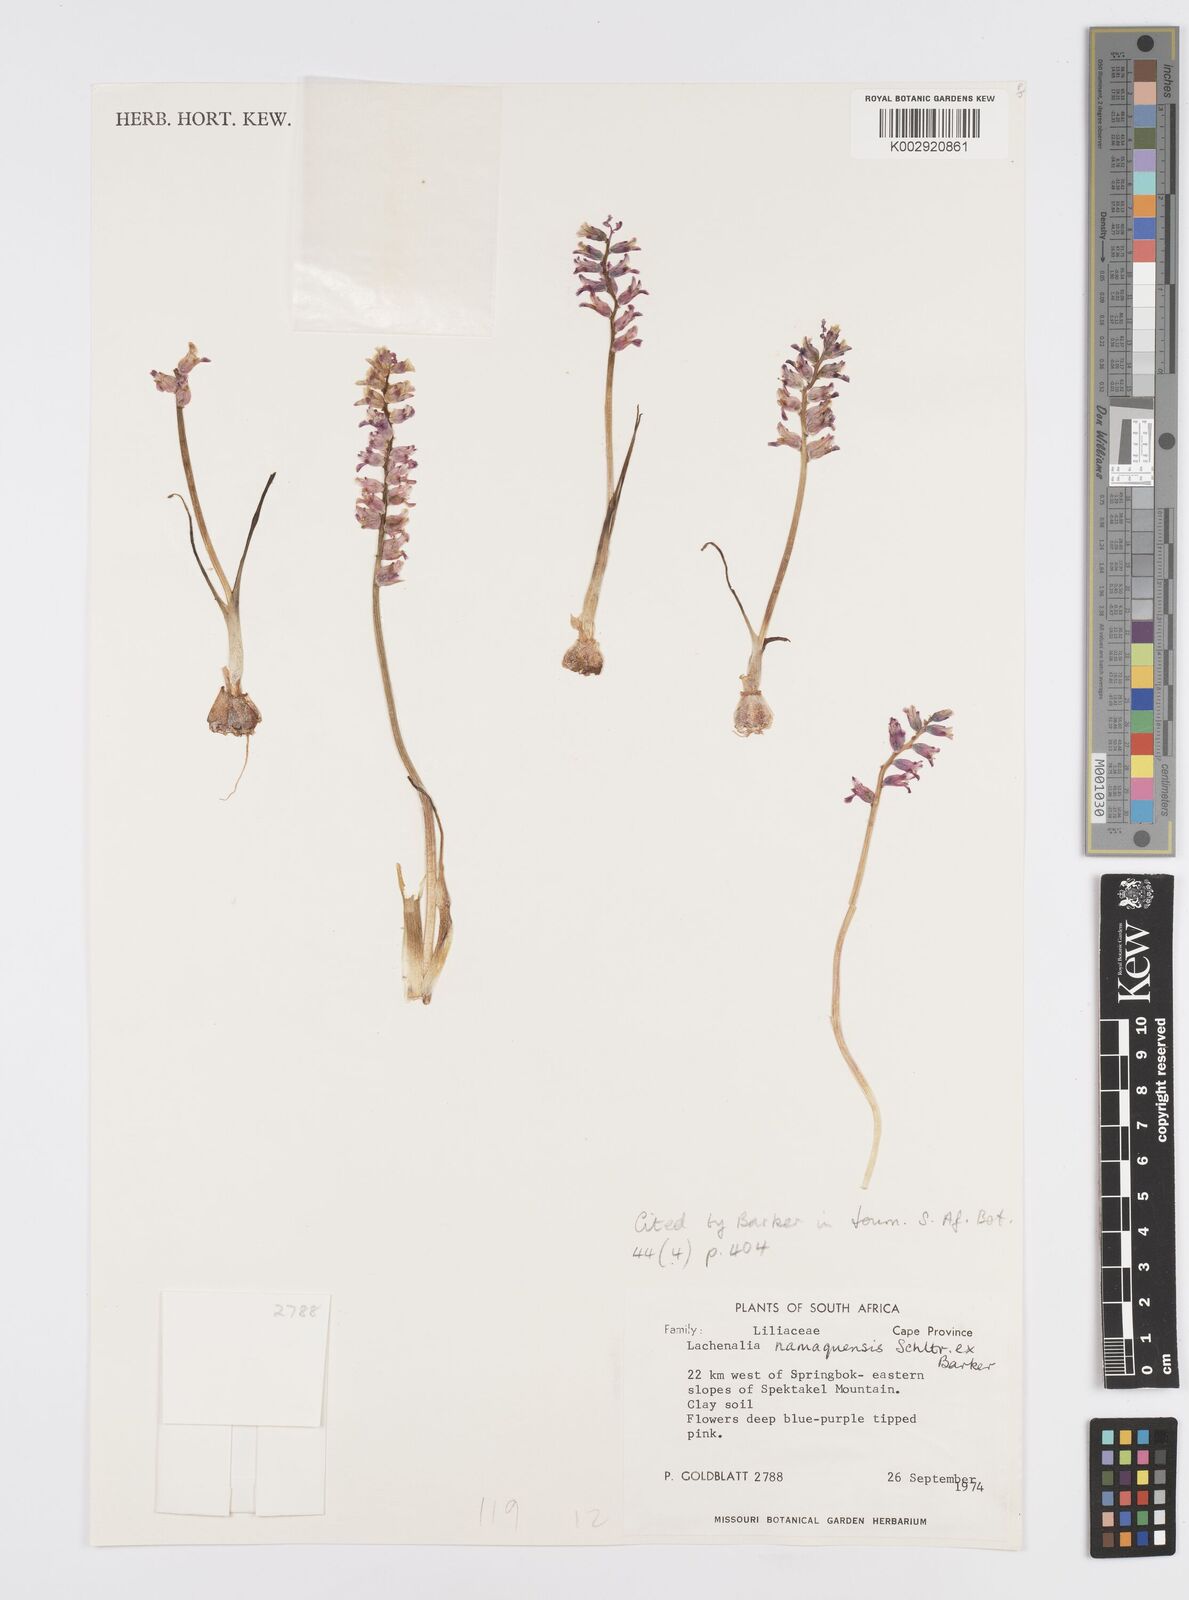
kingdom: Plantae
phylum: Tracheophyta
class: Liliopsida
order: Asparagales
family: Asparagaceae
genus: Lachenalia
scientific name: Lachenalia namaquensis
